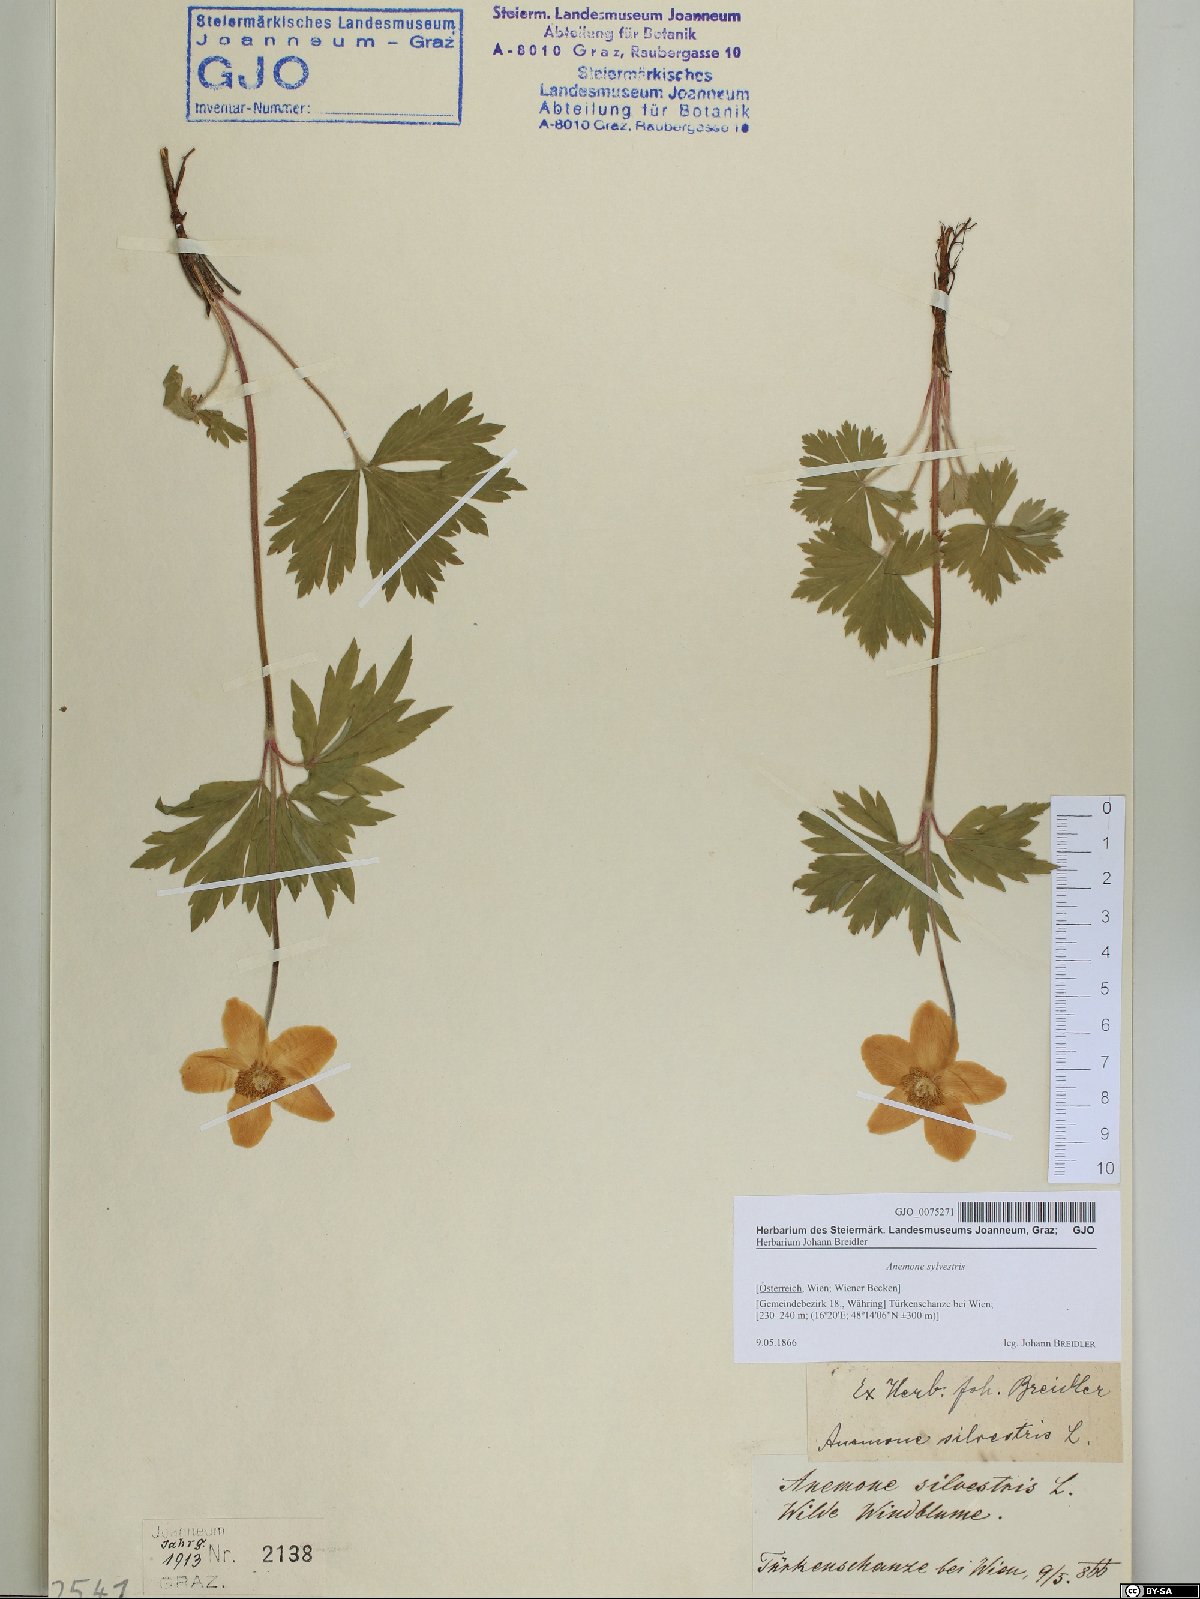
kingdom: Plantae
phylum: Tracheophyta
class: Magnoliopsida
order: Ranunculales
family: Ranunculaceae
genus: Anemone
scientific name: Anemone sylvestris
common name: Snowdrop anemone
